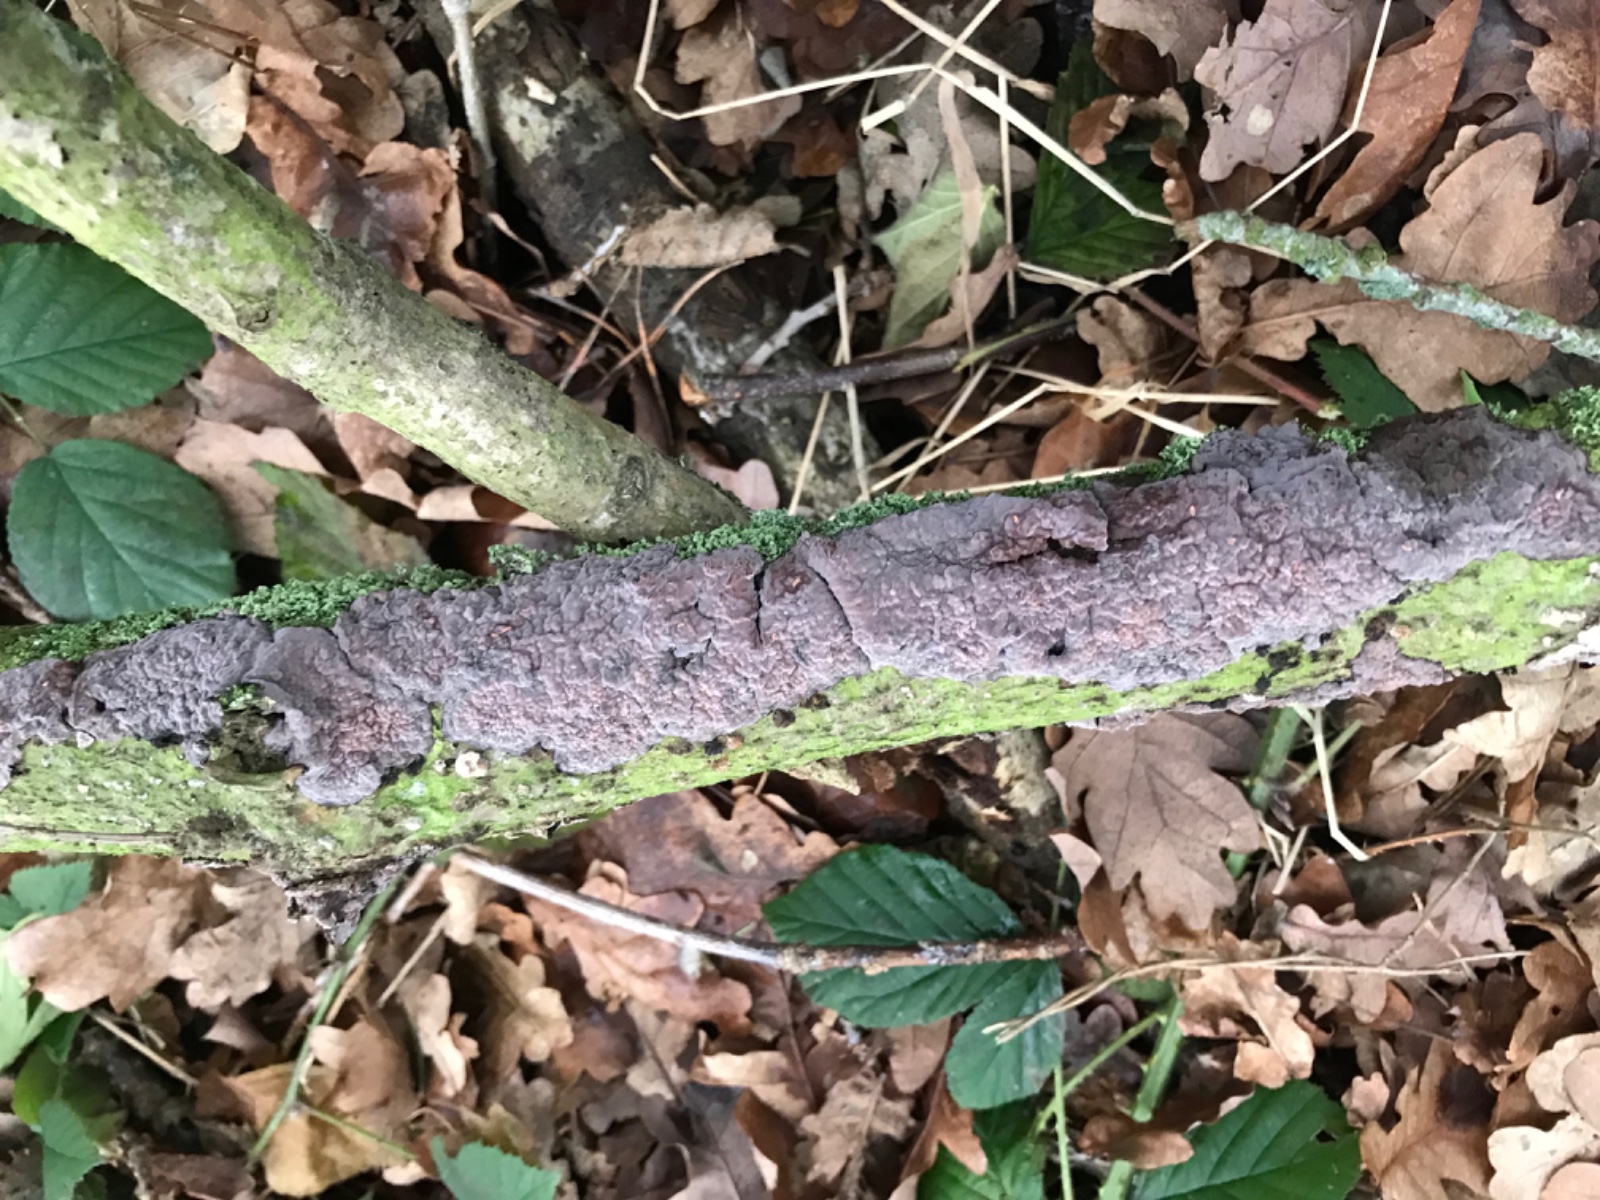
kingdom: Fungi
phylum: Basidiomycota
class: Agaricomycetes
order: Russulales
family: Peniophoraceae
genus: Peniophora
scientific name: Peniophora quercina
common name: ege-voksskind
